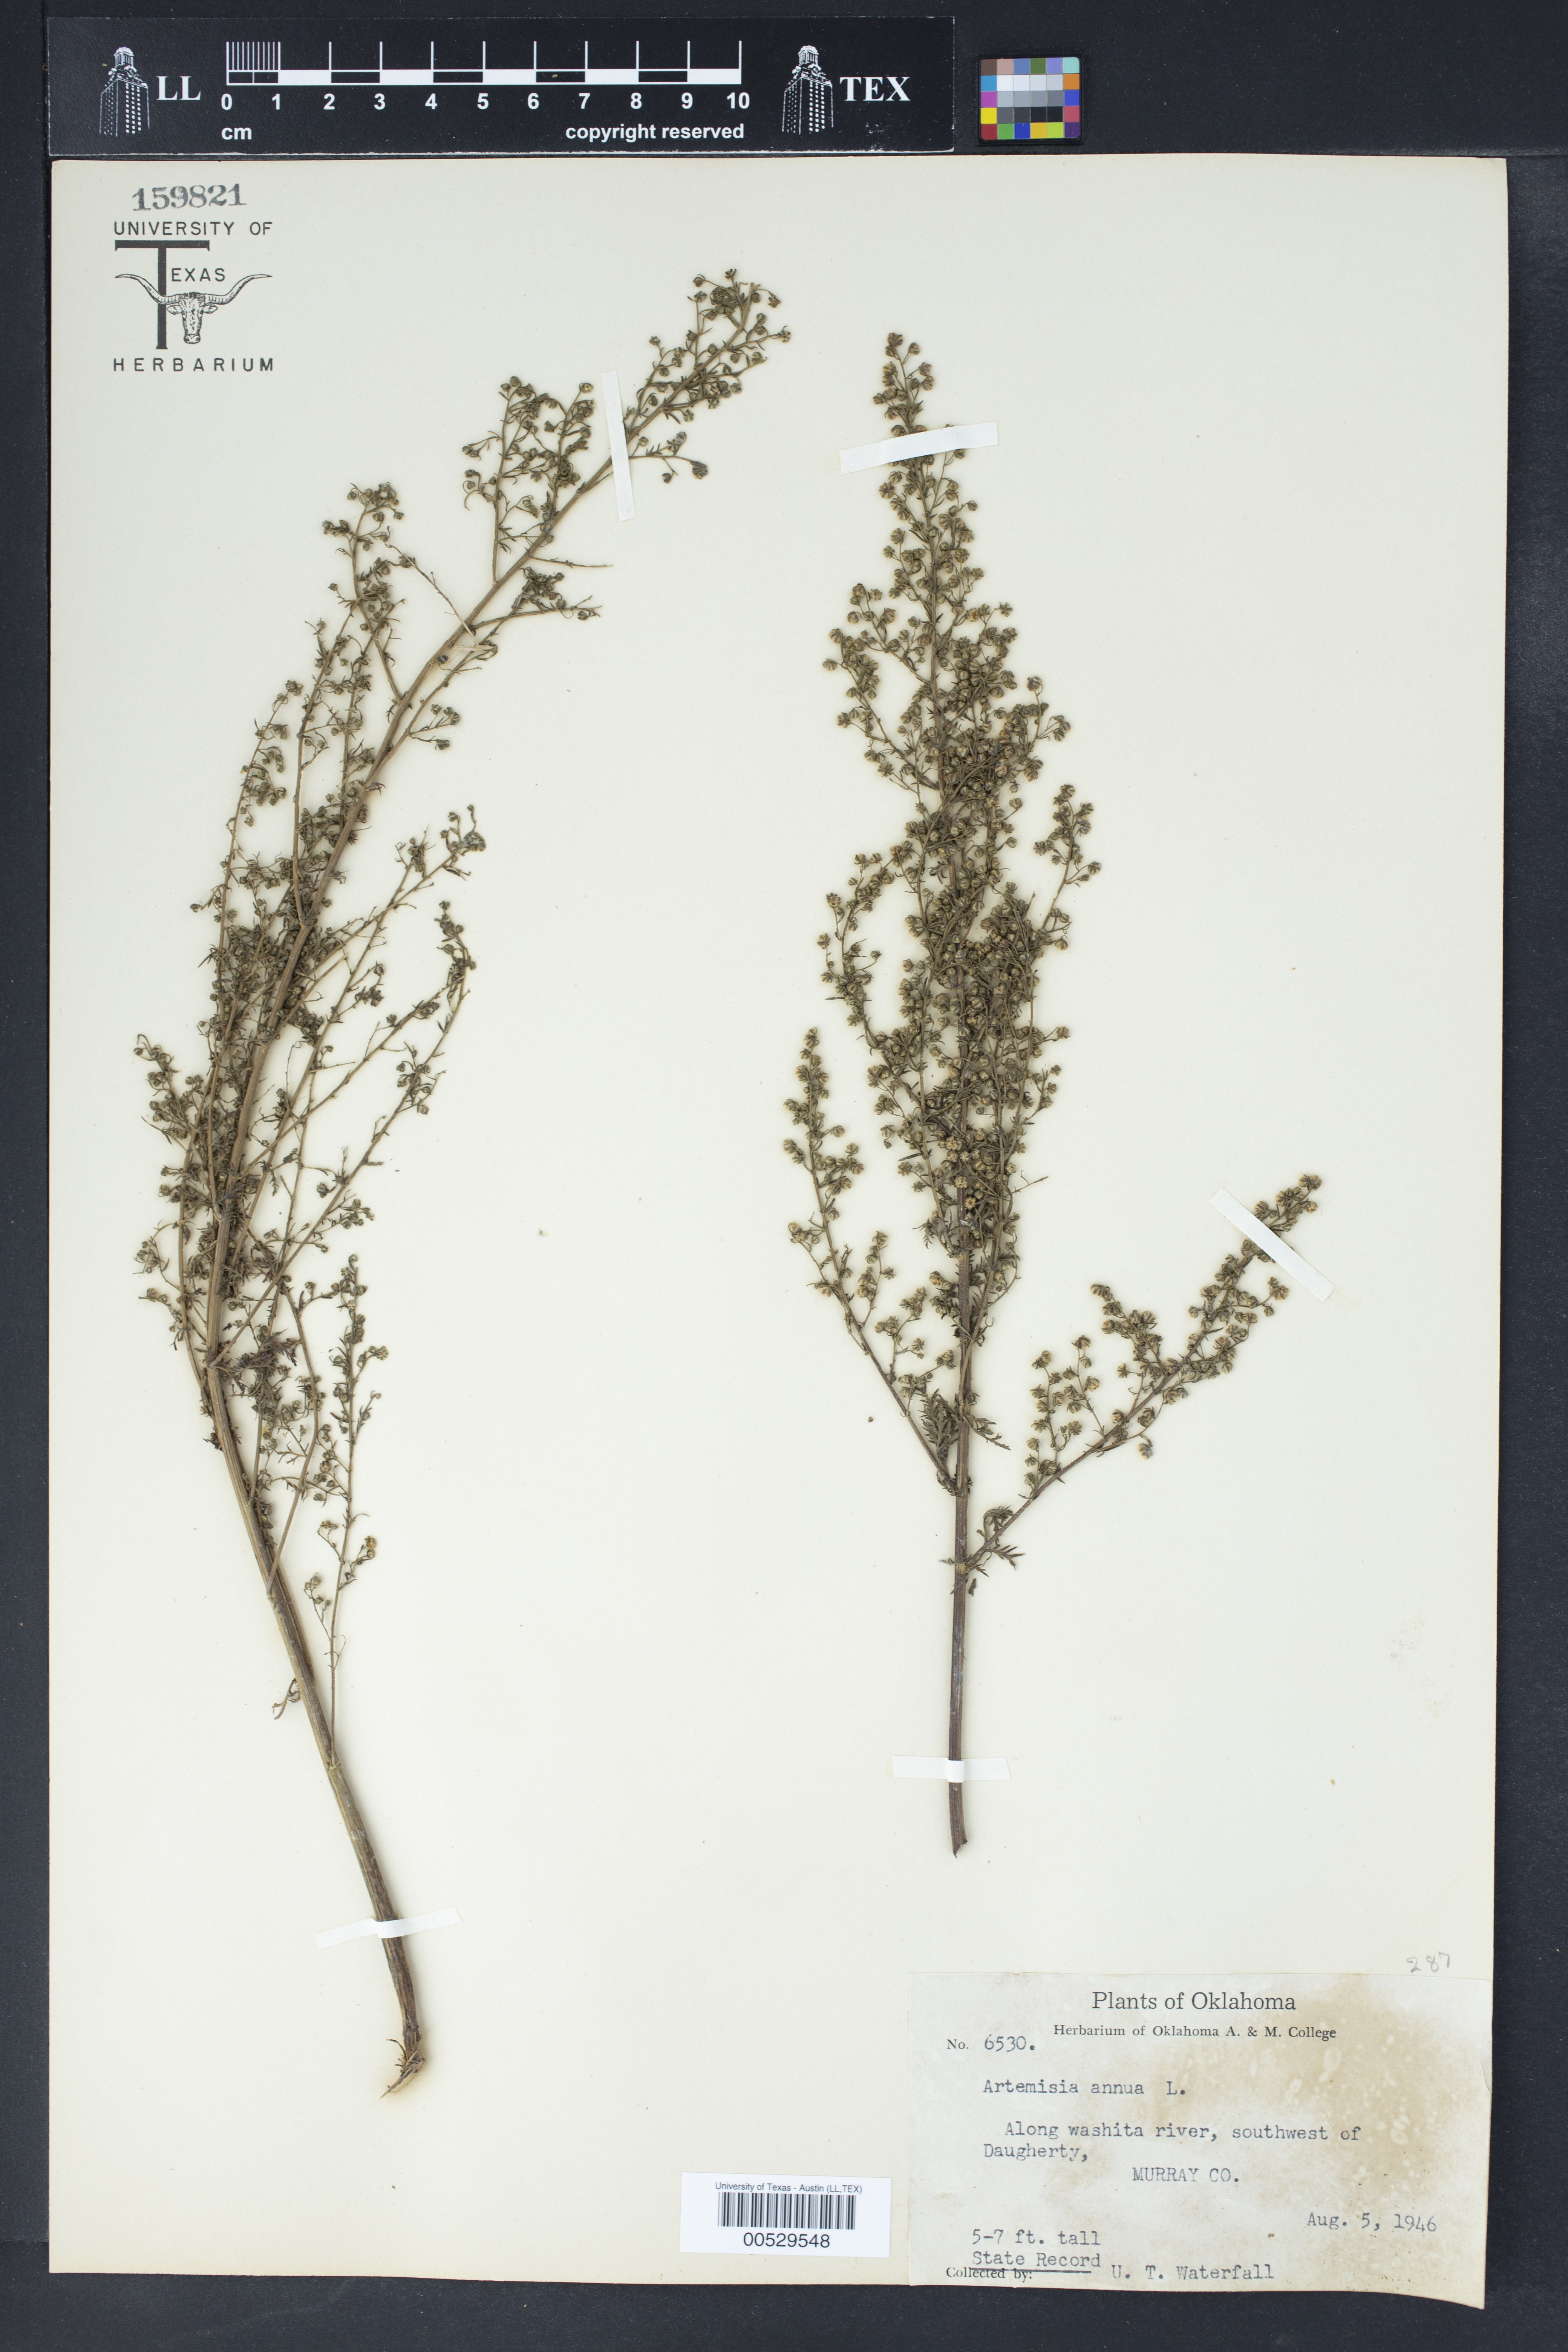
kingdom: Plantae
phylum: Tracheophyta
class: Magnoliopsida
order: Asterales
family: Asteraceae
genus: Artemisia
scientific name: Artemisia annua
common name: Sweet sagewort
